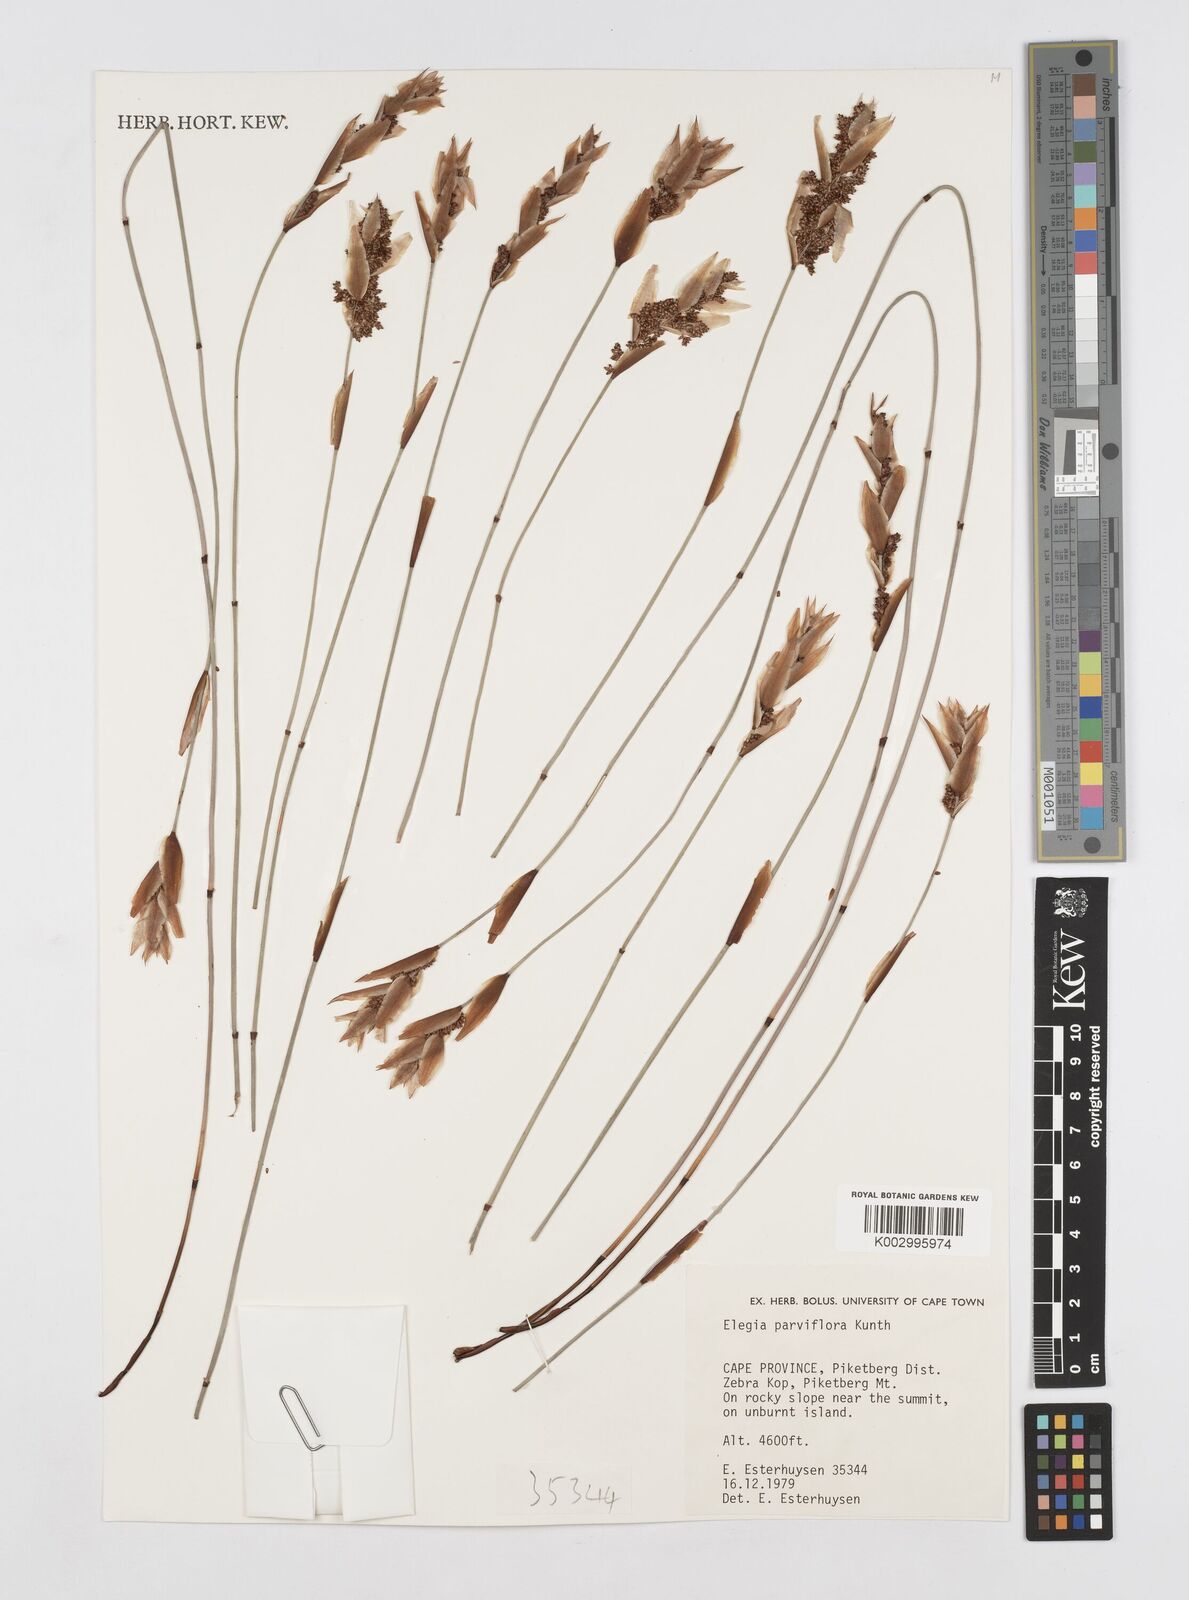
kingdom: Plantae
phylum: Tracheophyta
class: Liliopsida
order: Poales
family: Restionaceae
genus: Cannomois
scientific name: Cannomois parviflora
